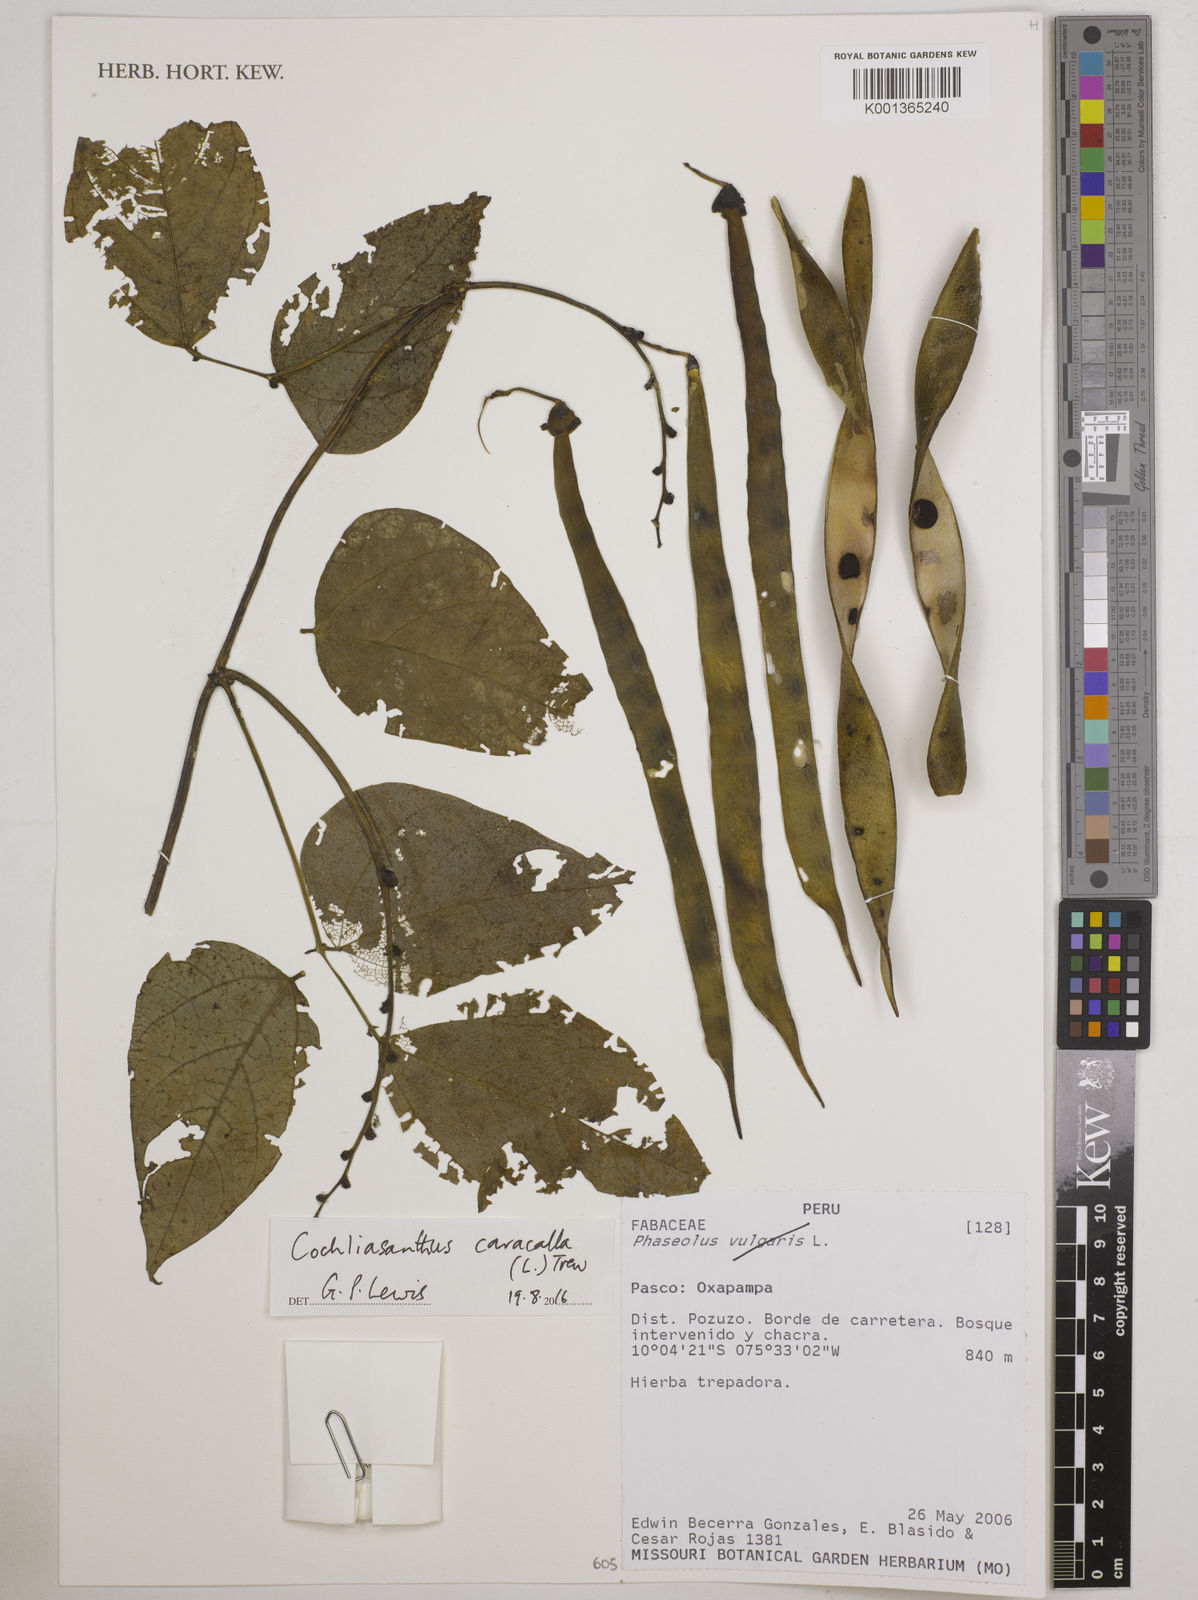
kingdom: Plantae
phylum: Tracheophyta
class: Magnoliopsida
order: Fabales
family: Fabaceae
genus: Cochliasanthus
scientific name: Cochliasanthus caracalla
